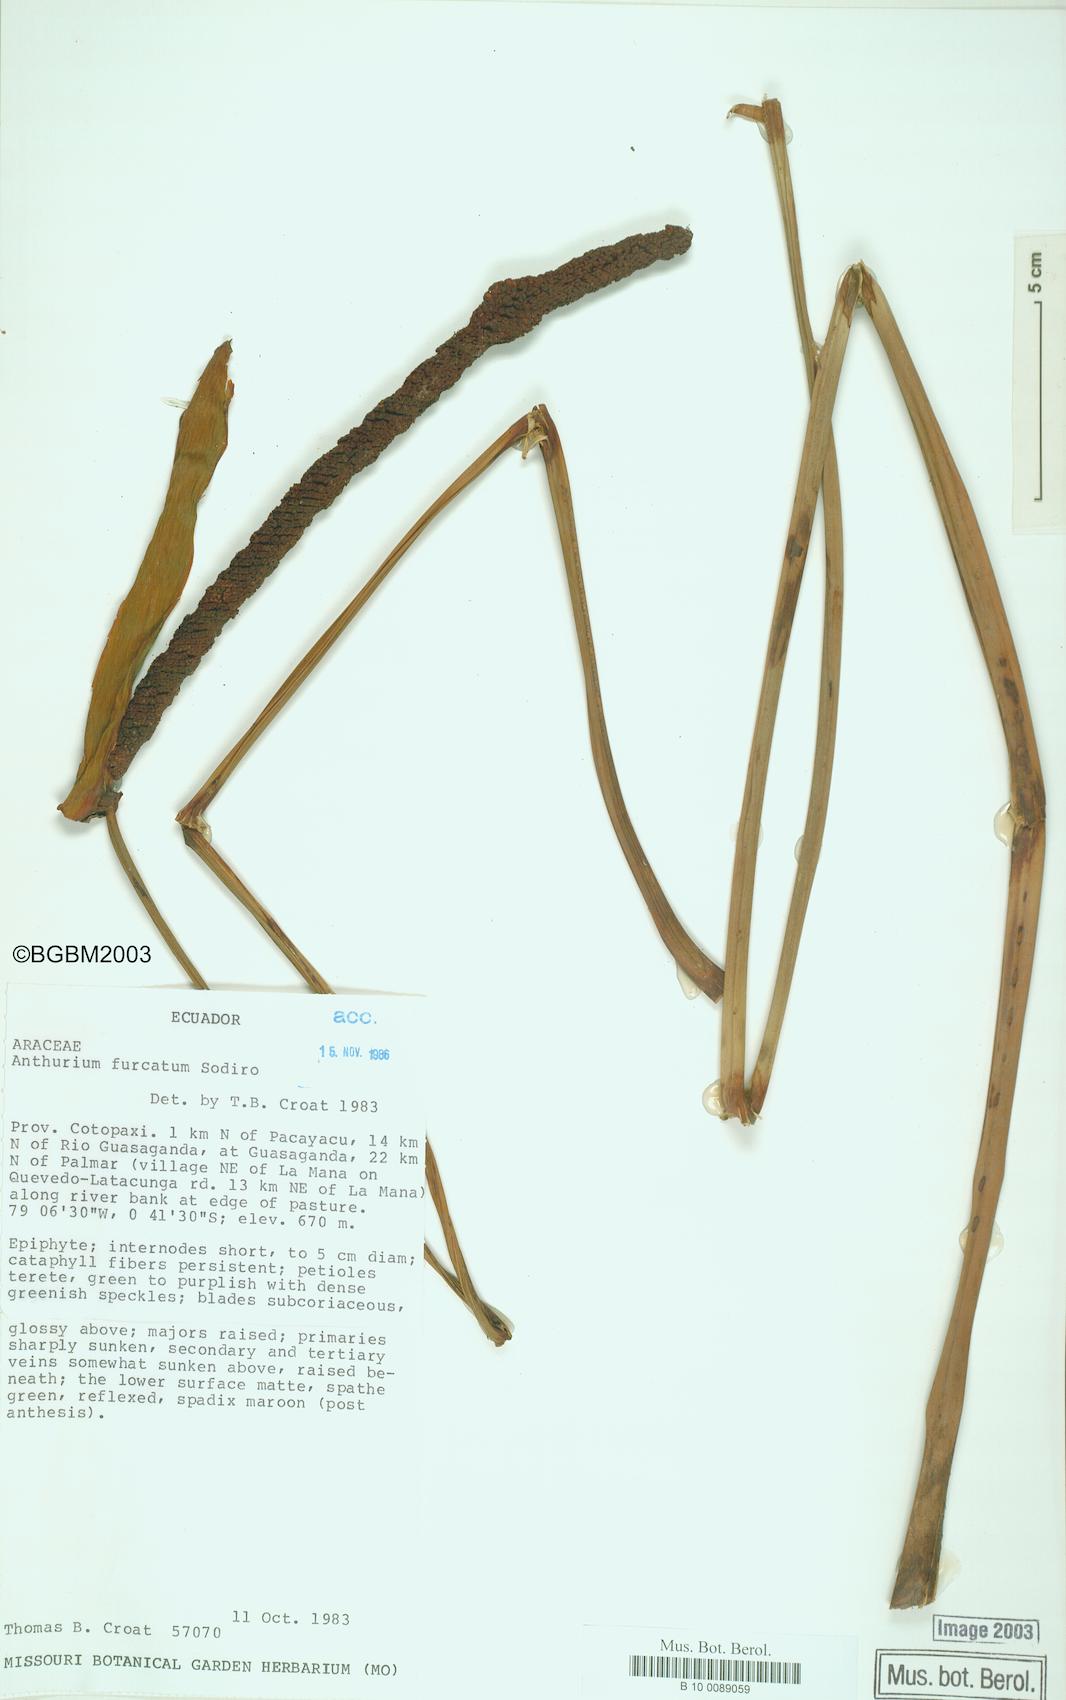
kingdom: Plantae
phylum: Tracheophyta
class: Liliopsida
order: Alismatales
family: Araceae
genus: Anthurium
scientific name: Anthurium furcatum
